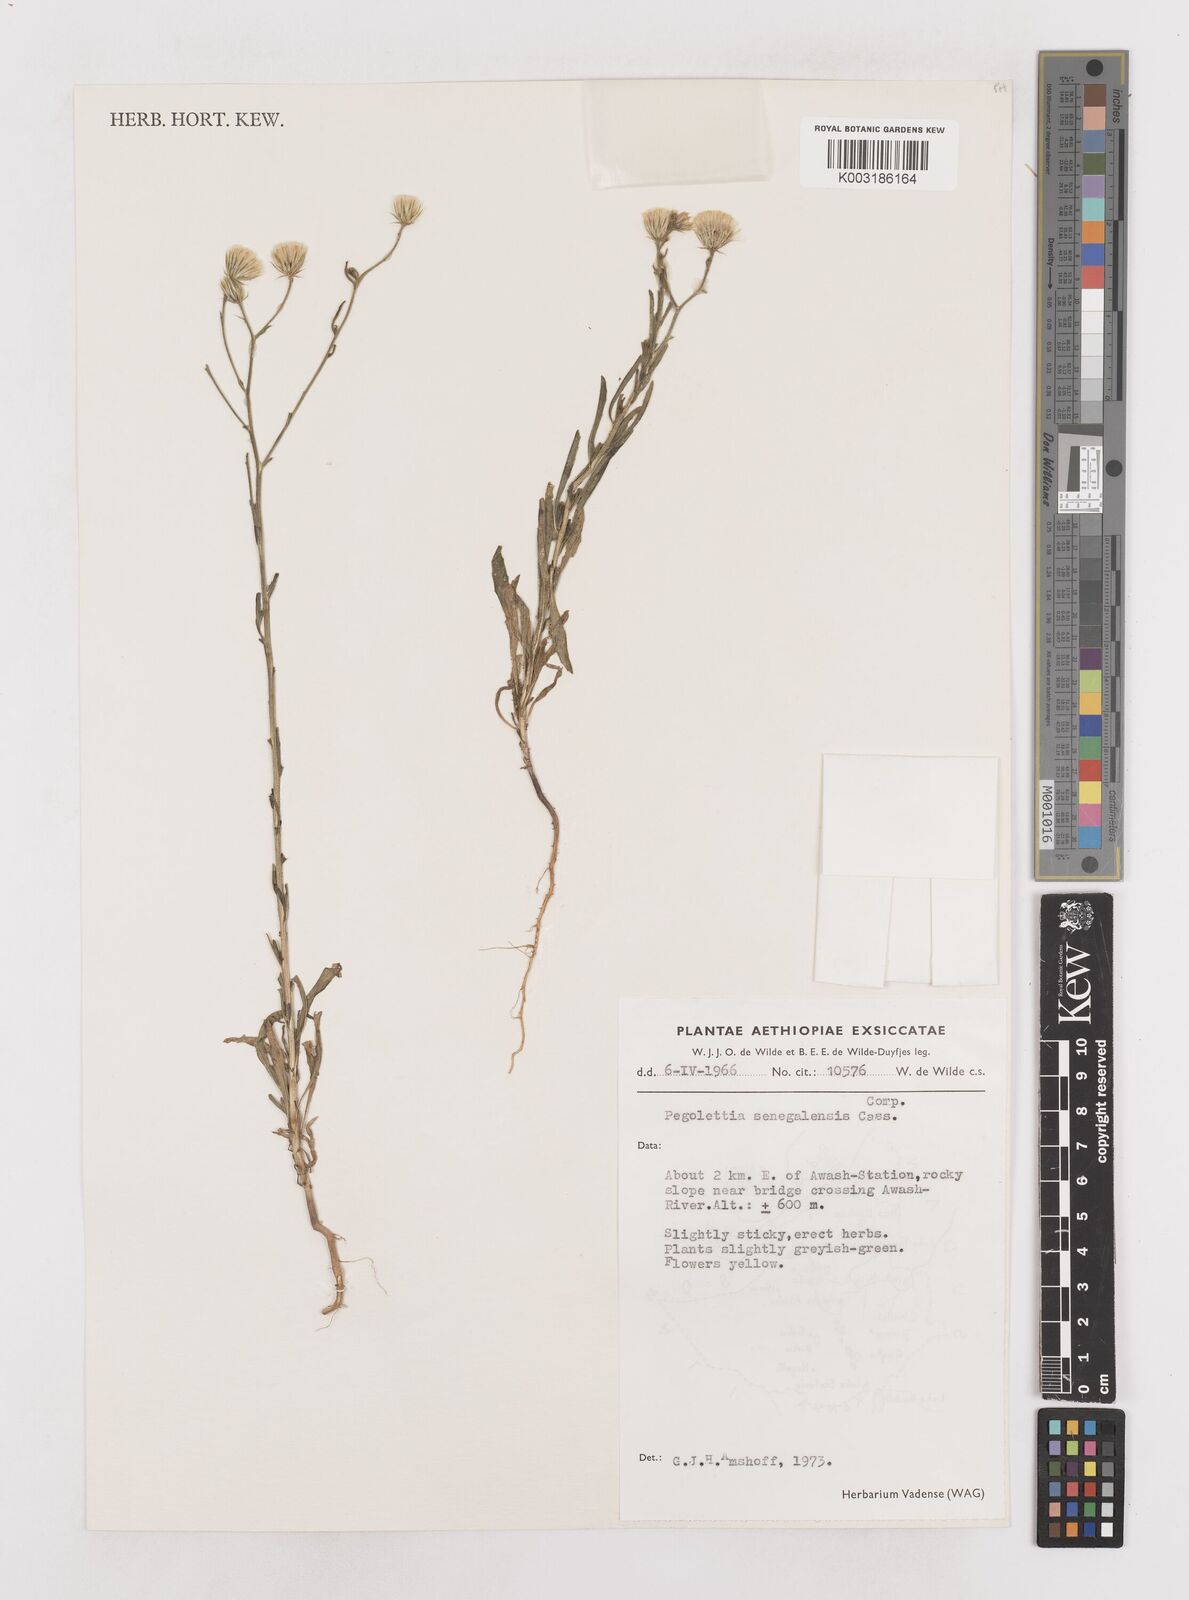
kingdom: Plantae
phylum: Tracheophyta
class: Magnoliopsida
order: Asterales
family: Asteraceae
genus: Pegolettia
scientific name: Pegolettia senegalensis
